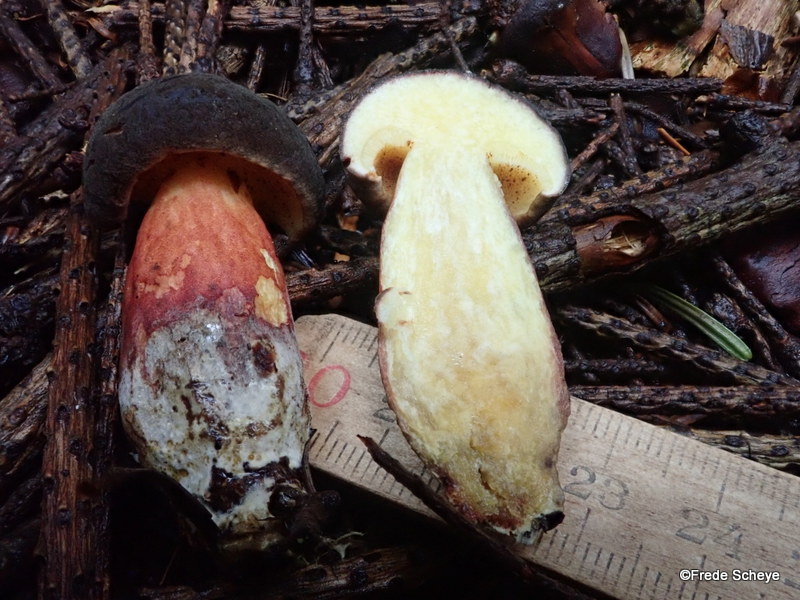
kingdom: Fungi
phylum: Basidiomycota
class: Agaricomycetes
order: Boletales
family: Boletaceae
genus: Xerocomellus
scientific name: Xerocomellus pruinatus
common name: dugget rørhat
